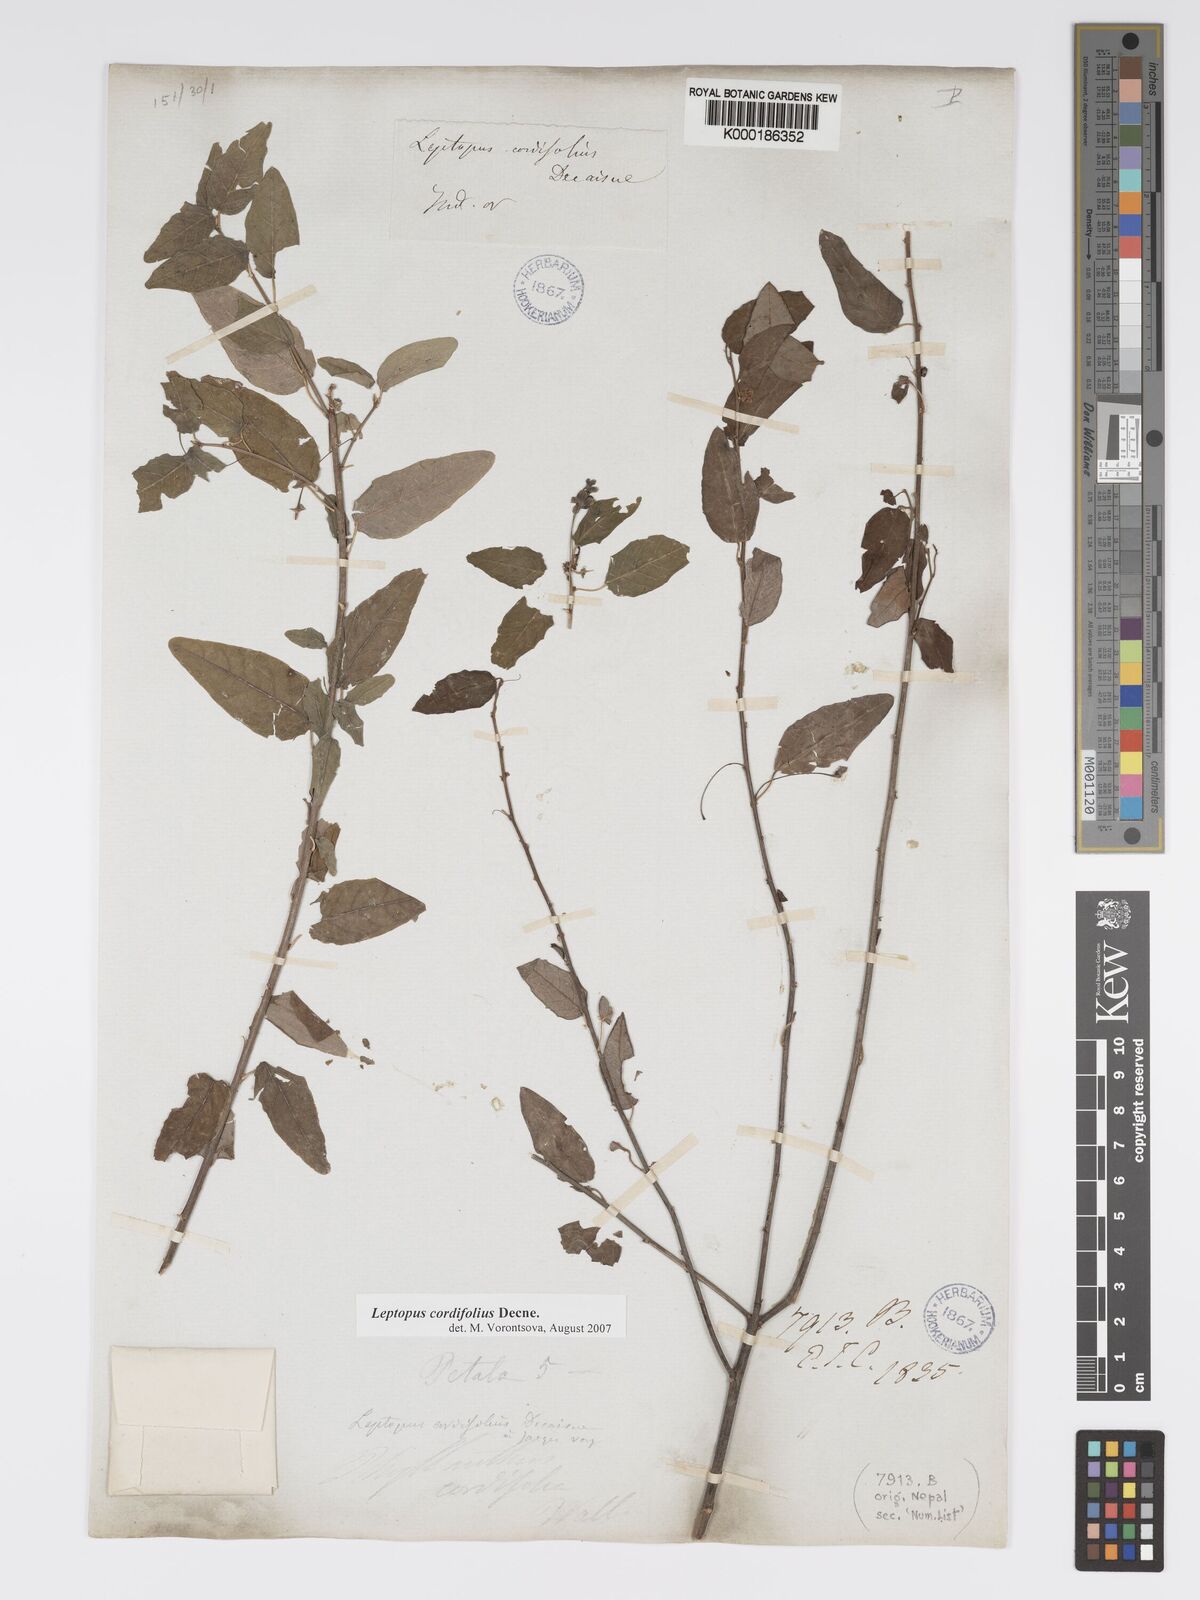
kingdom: Plantae
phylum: Tracheophyta
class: Magnoliopsida
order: Malpighiales
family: Phyllanthaceae
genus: Leptopus
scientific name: Leptopus cordifolius
